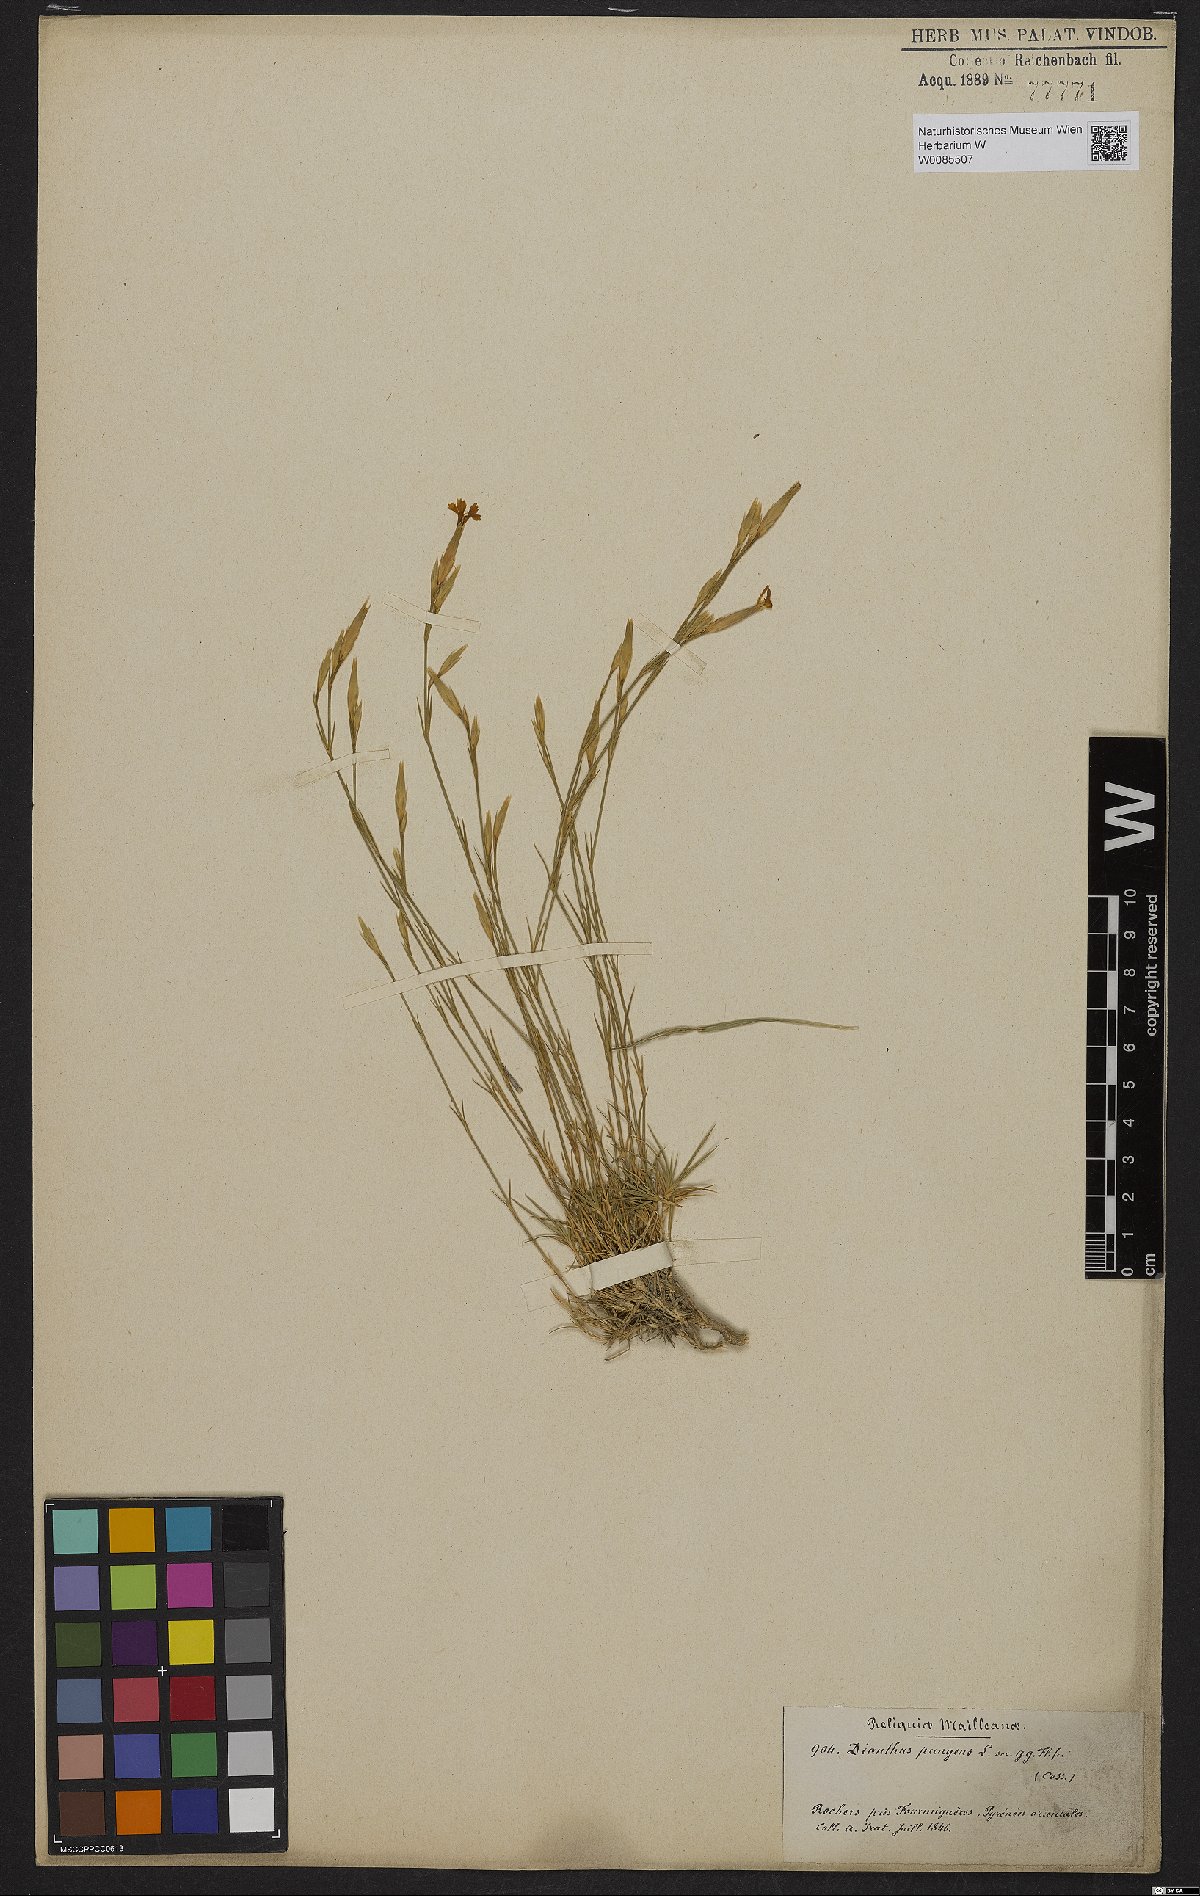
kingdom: Plantae
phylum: Tracheophyta
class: Magnoliopsida
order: Caryophyllales
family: Caryophyllaceae
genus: Dianthus
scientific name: Dianthus pungens
